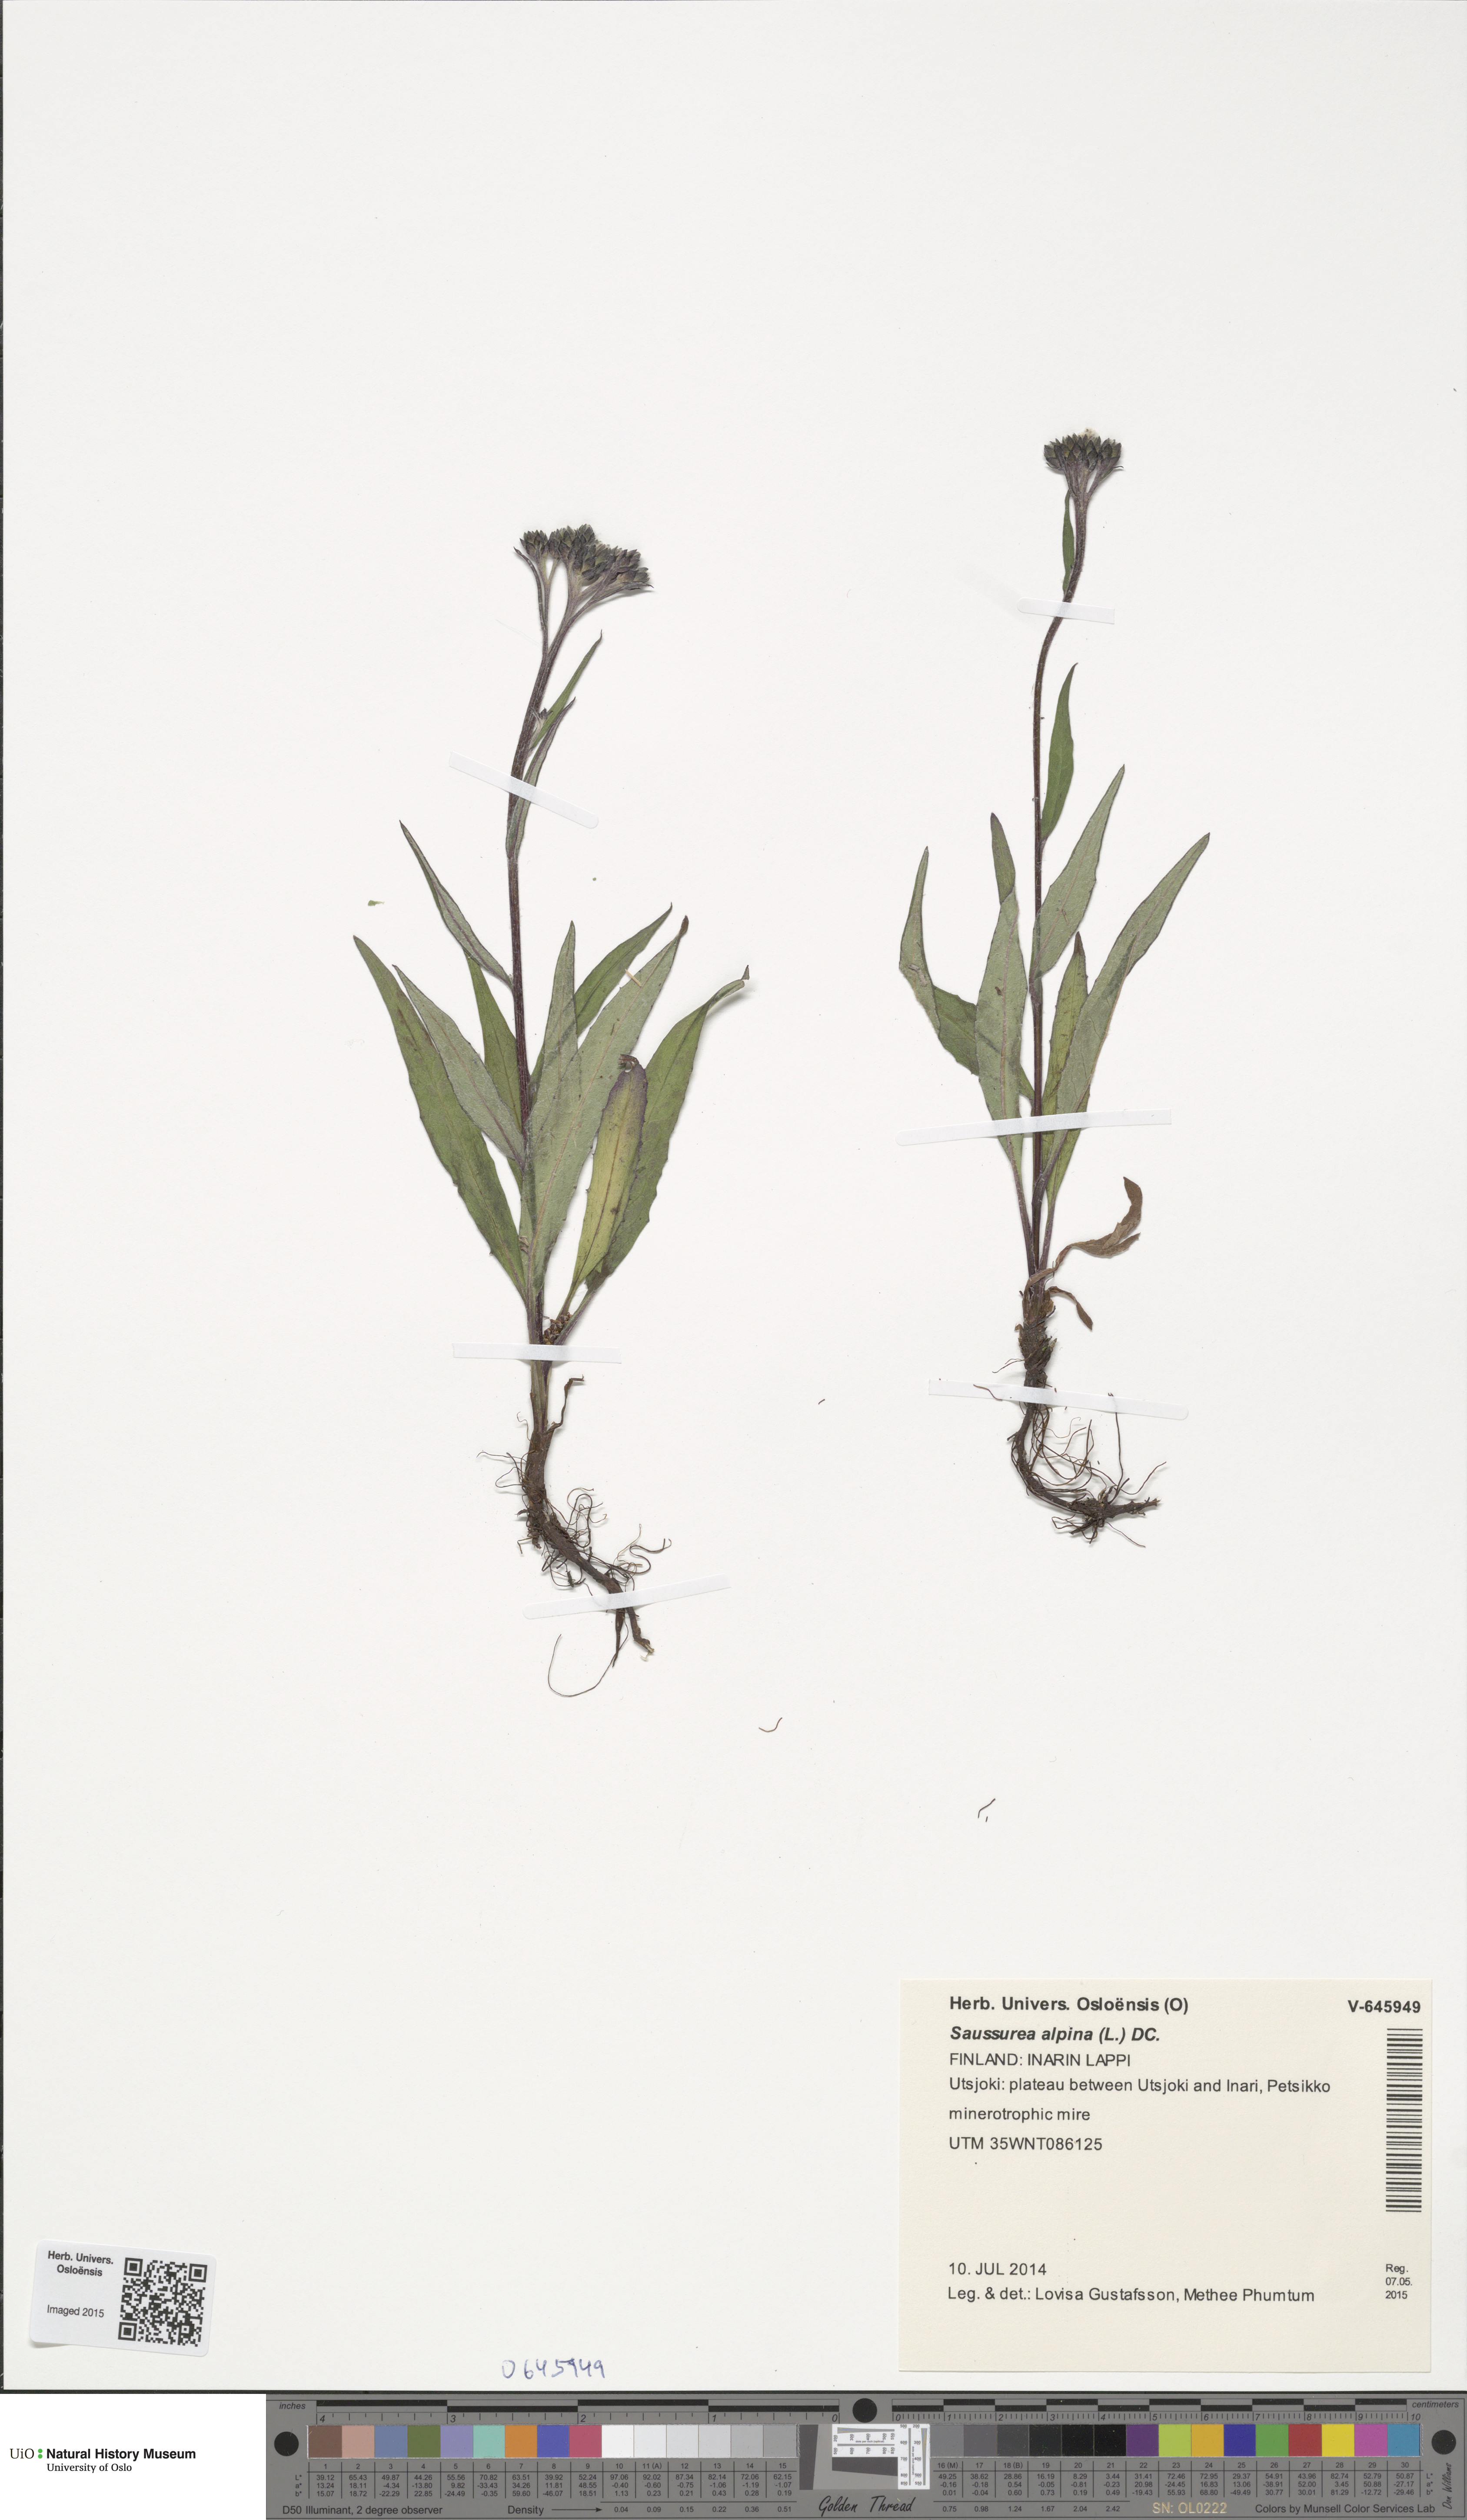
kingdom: Plantae
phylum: Tracheophyta
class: Magnoliopsida
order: Asterales
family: Asteraceae
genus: Saussurea
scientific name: Saussurea alpina
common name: Alpine saw-wort
